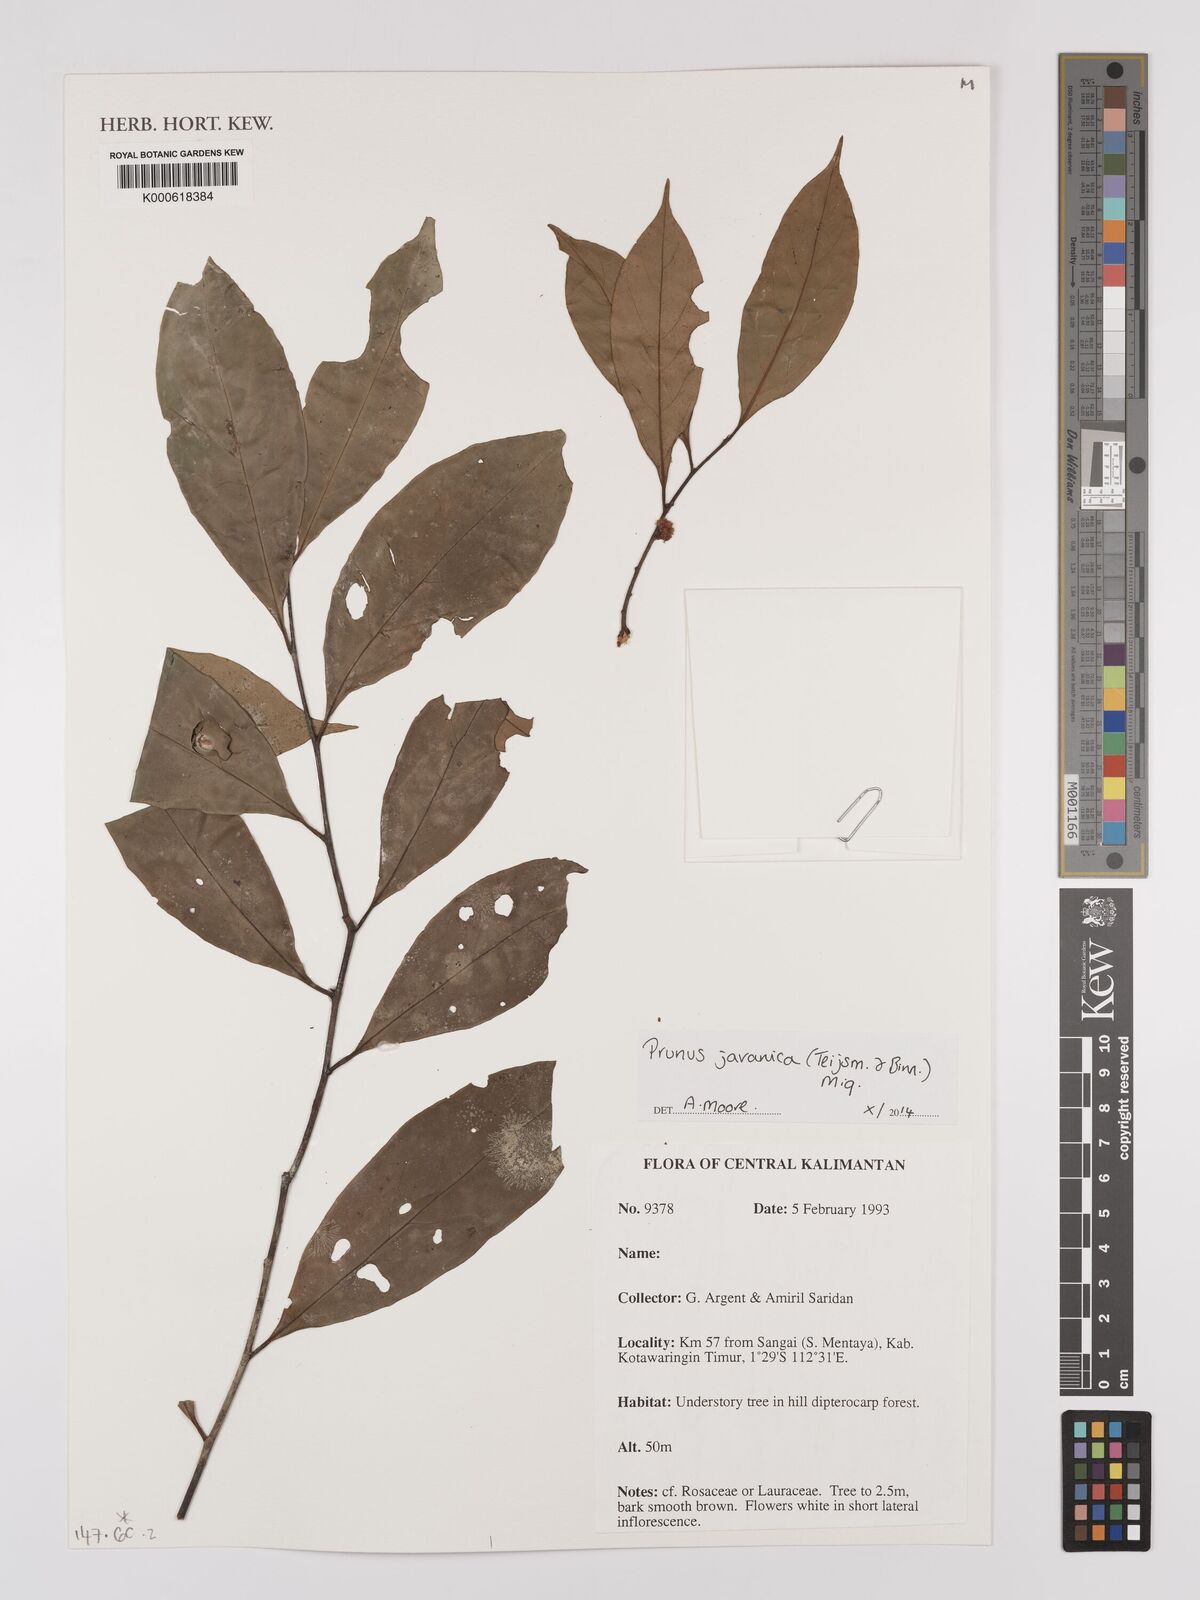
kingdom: Plantae
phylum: Tracheophyta
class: Magnoliopsida
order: Rosales
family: Rosaceae
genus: Prunus
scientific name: Prunus javanica
